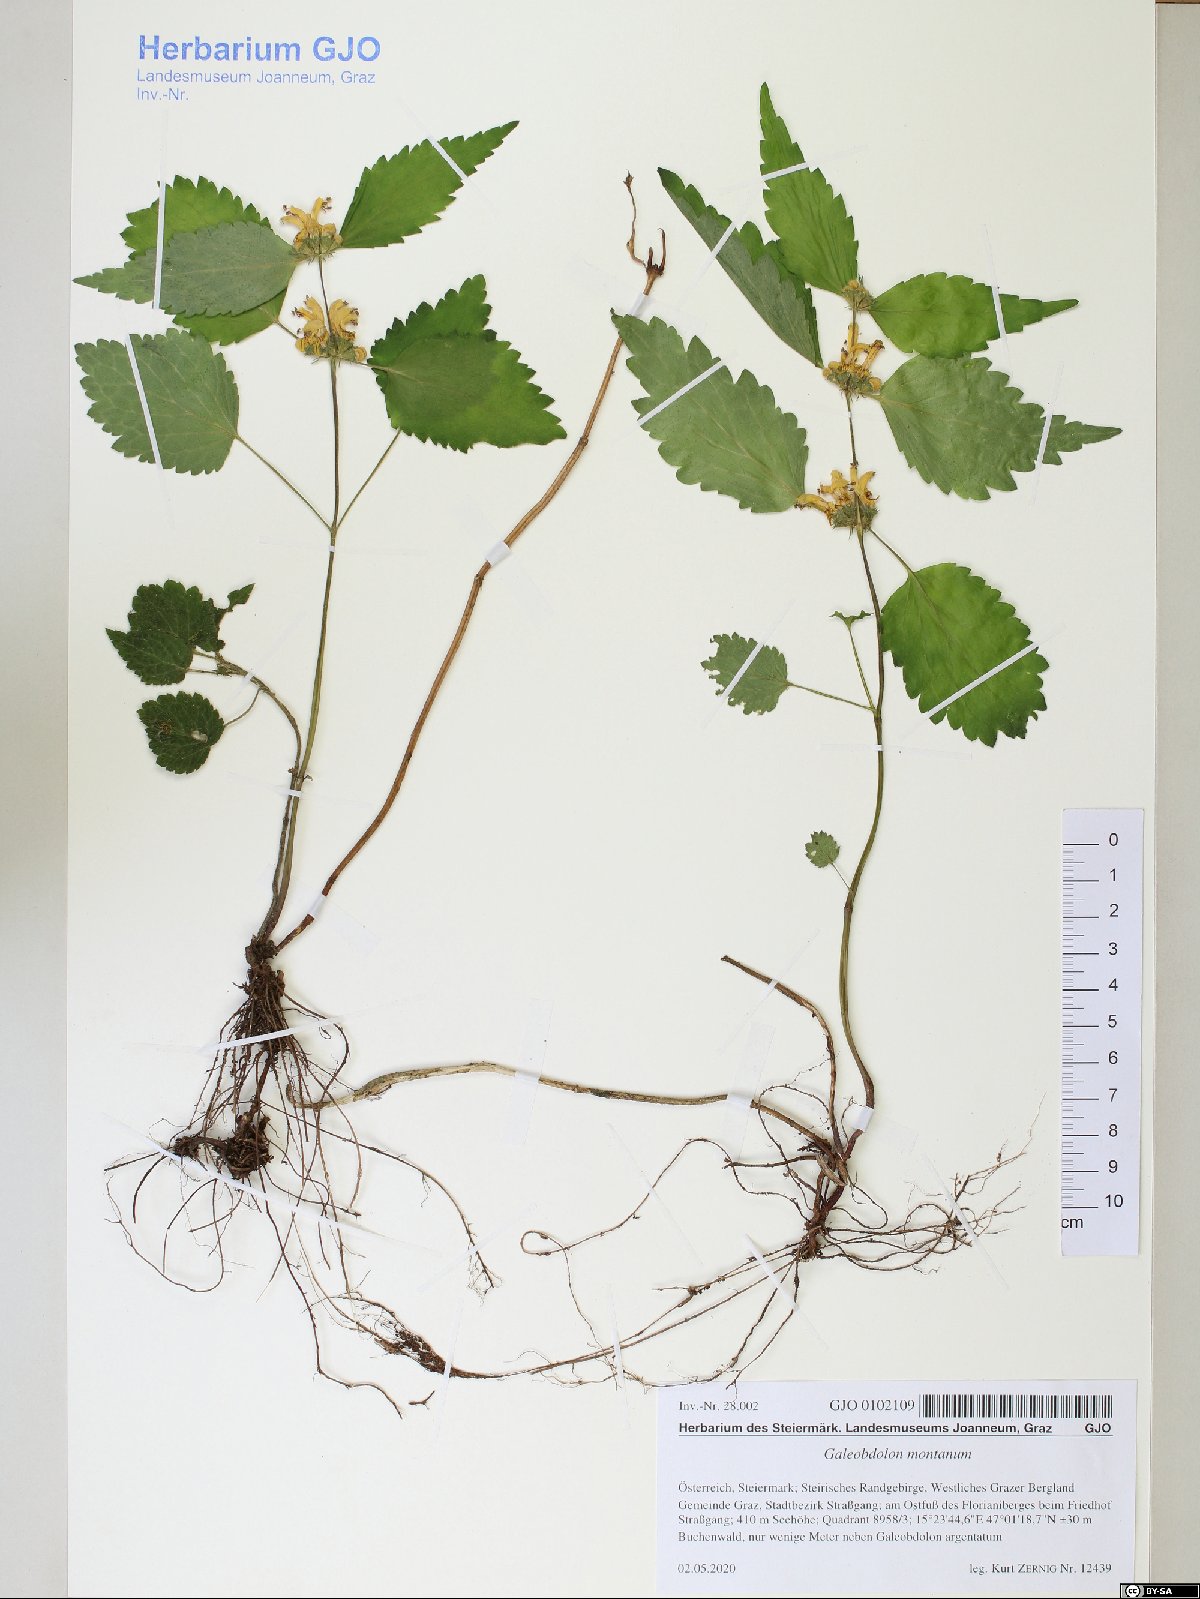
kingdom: Plantae
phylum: Tracheophyta
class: Magnoliopsida
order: Lamiales
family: Lamiaceae
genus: Lamium
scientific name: Lamium galeobdolon
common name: Yellow archangel
